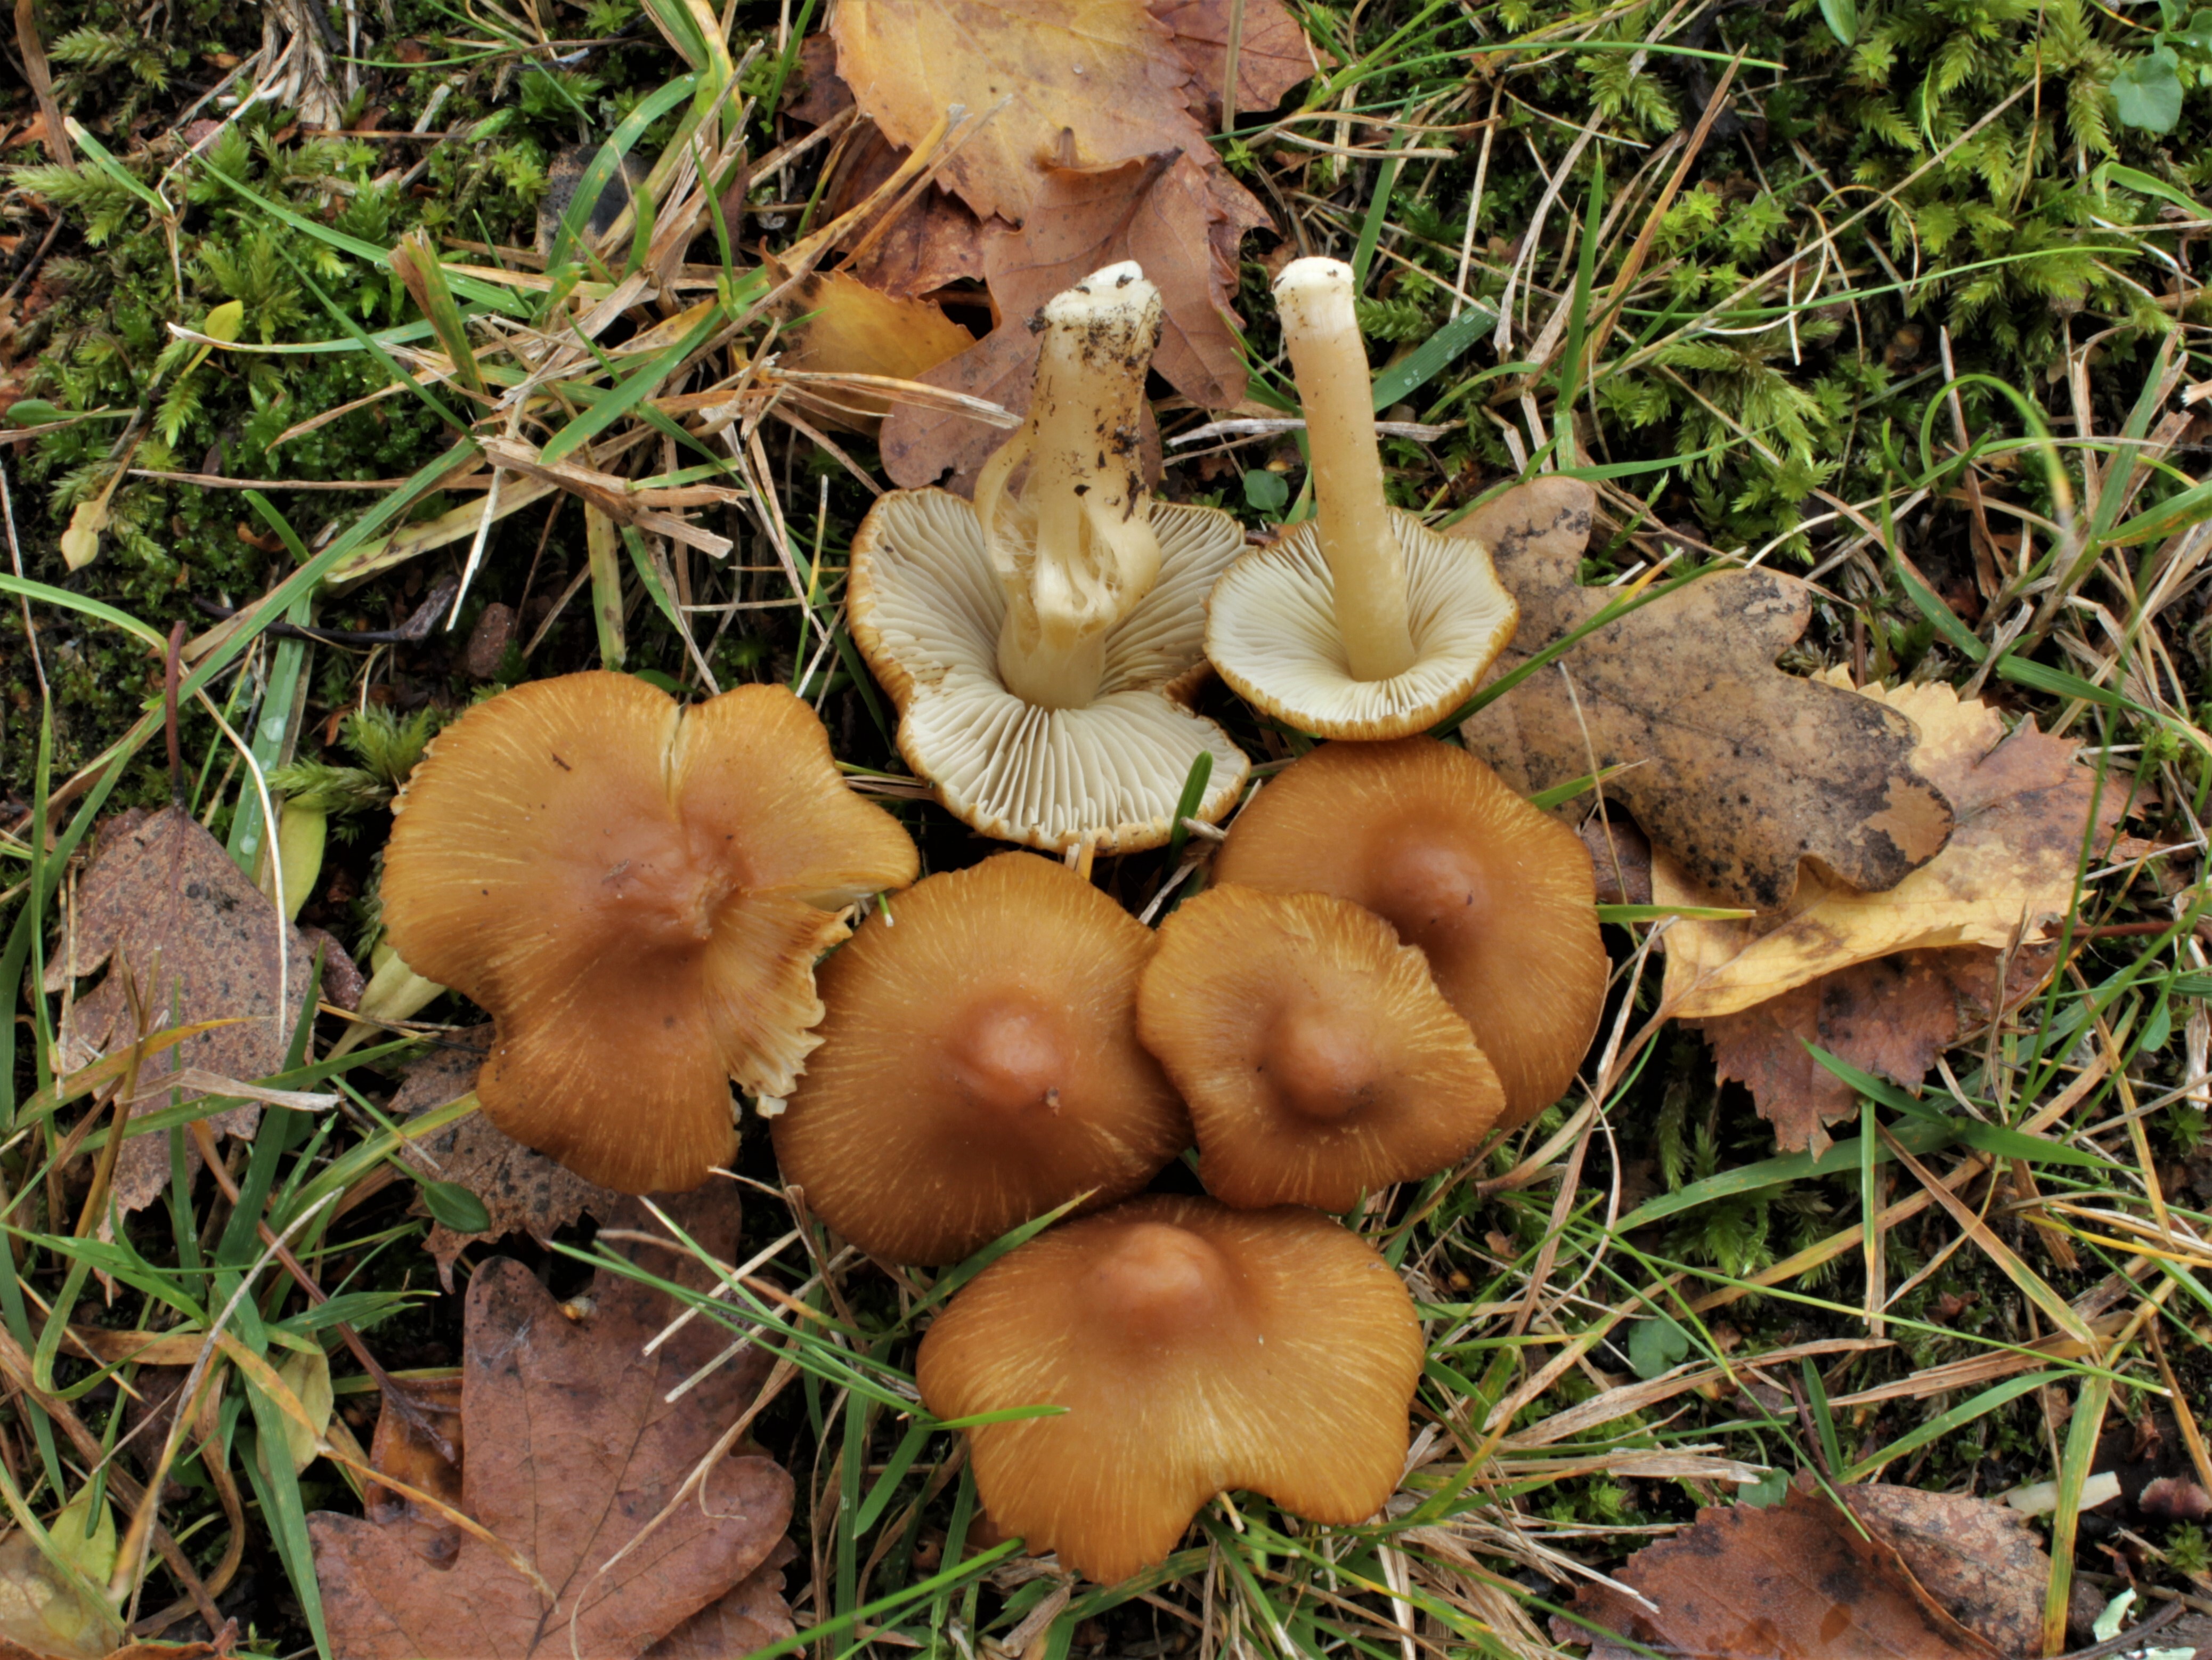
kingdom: Fungi
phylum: Basidiomycota
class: Agaricomycetes
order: Agaricales
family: Inocybaceae
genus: Inocybe
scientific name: Inocybe subrimosa
